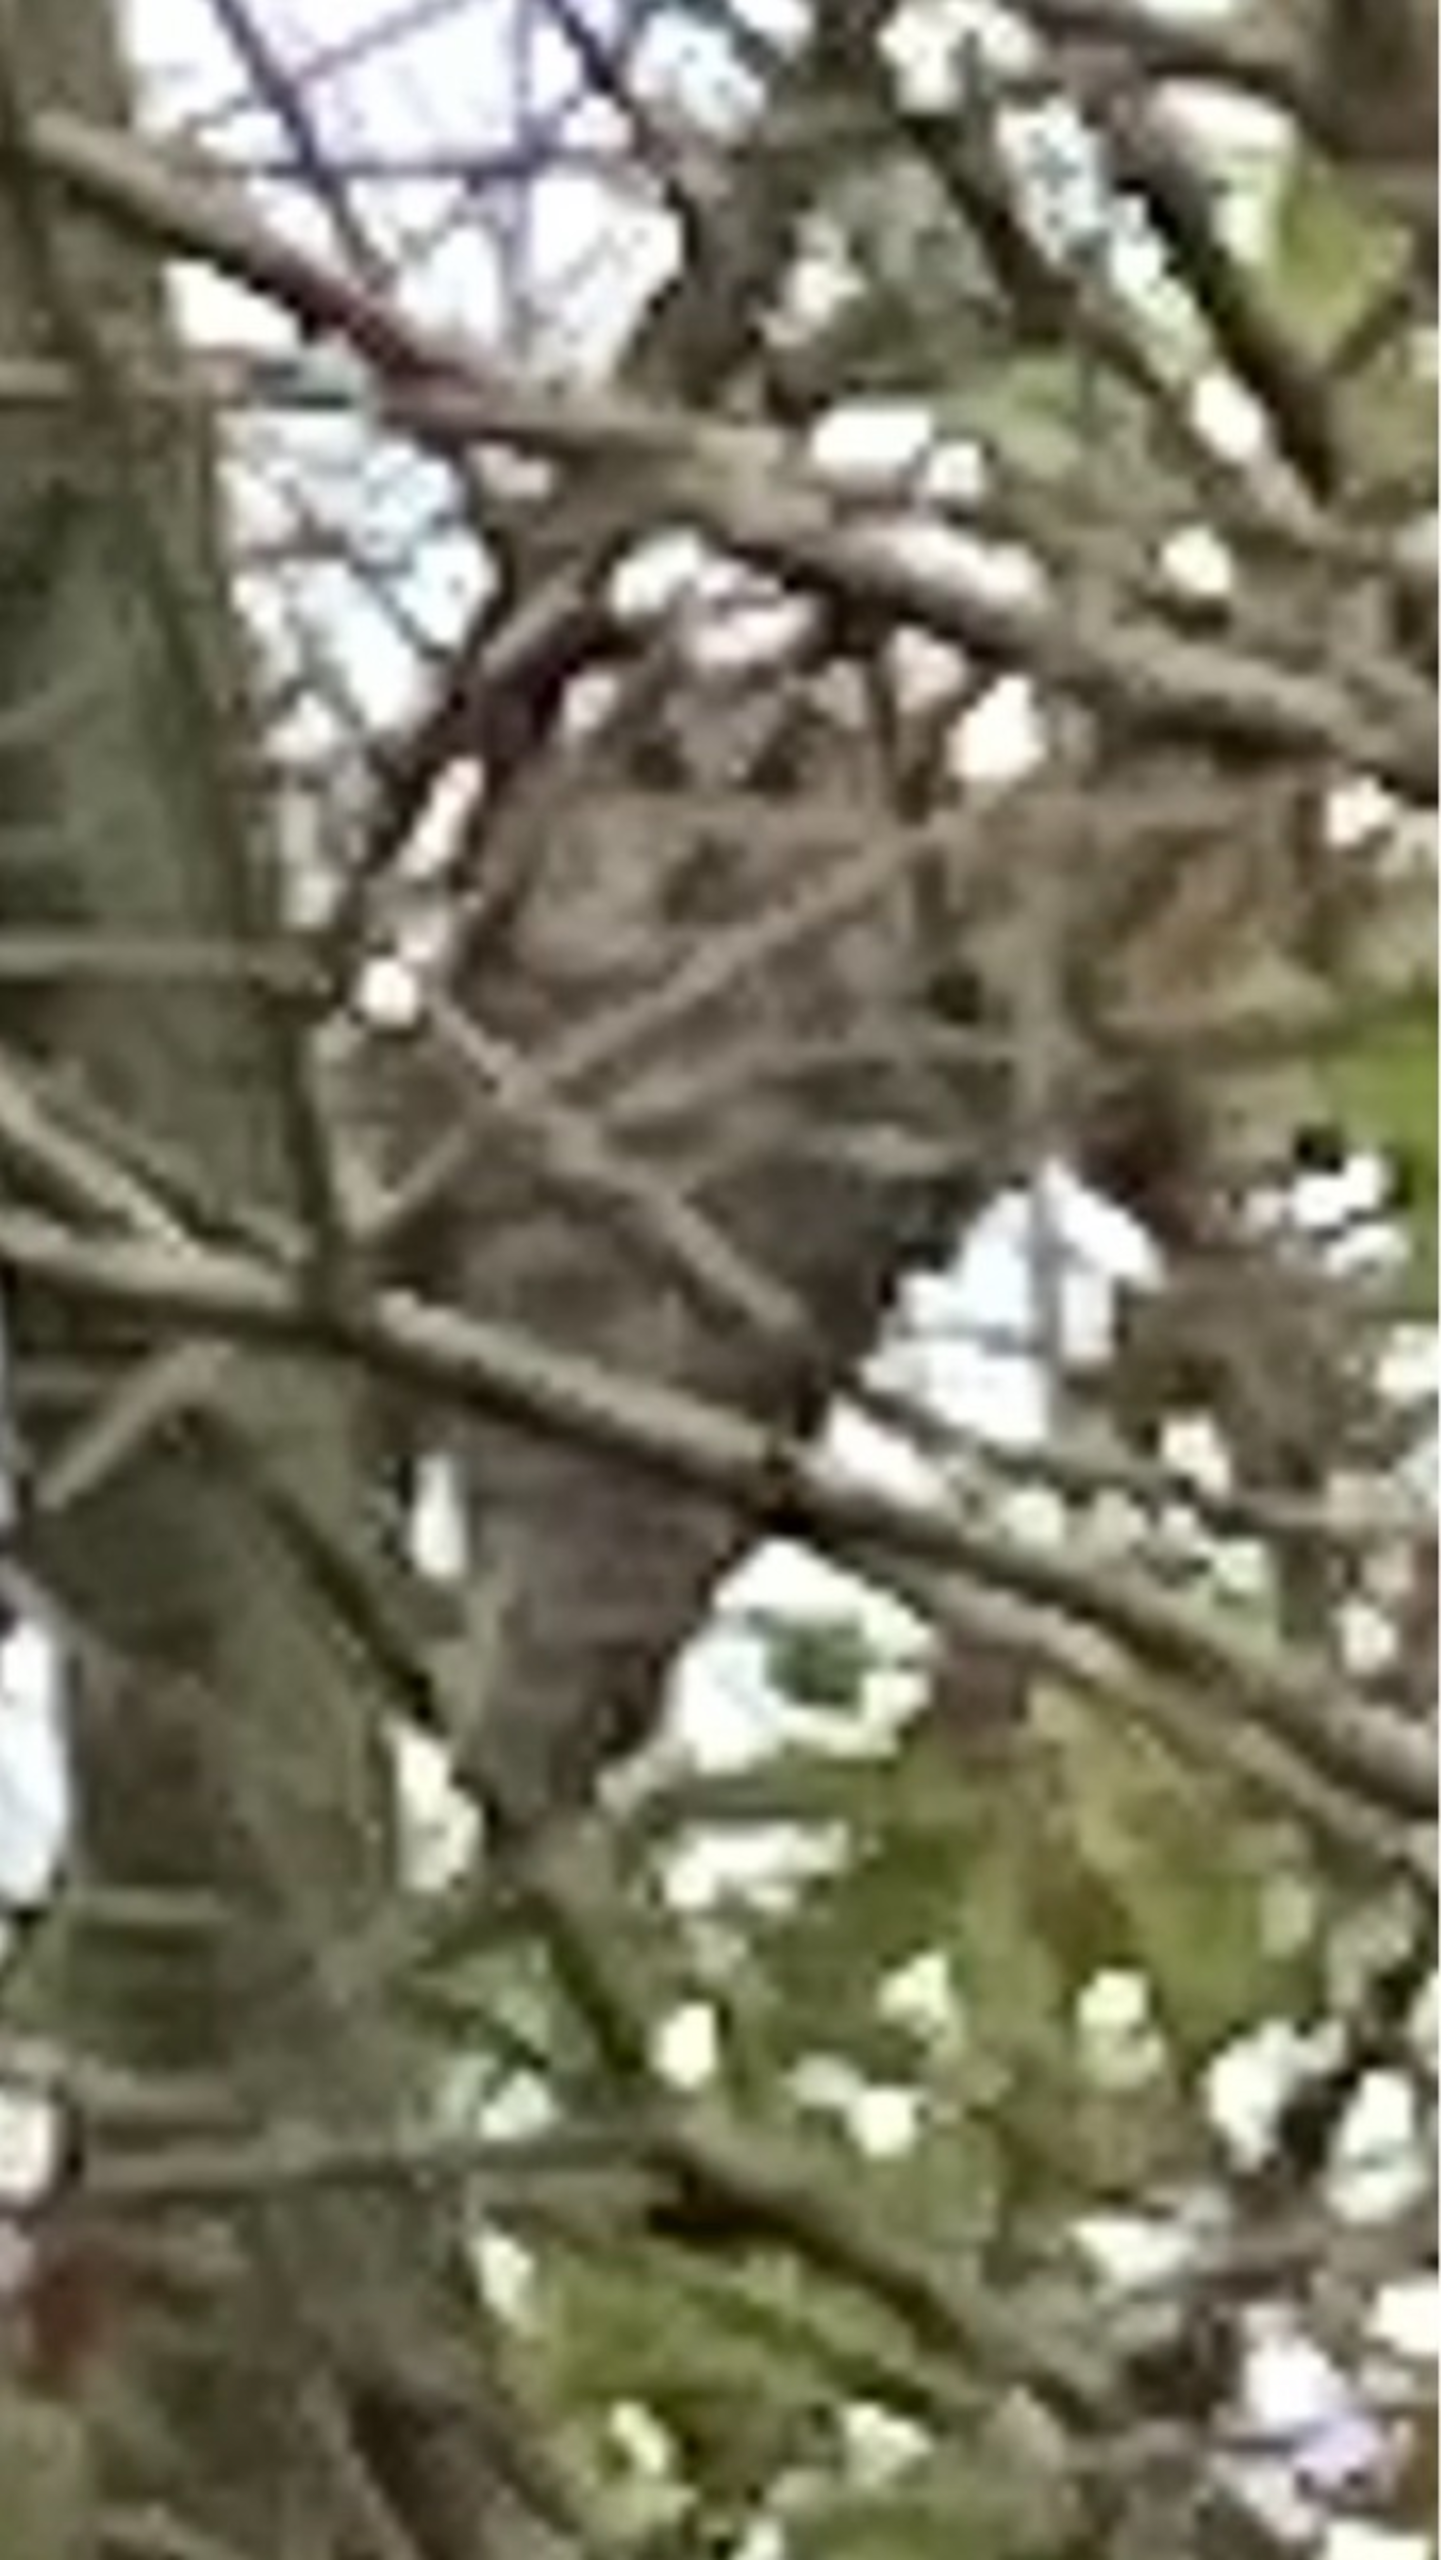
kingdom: Animalia
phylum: Chordata
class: Aves
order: Strigiformes
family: Strigidae
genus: Asio
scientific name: Asio otus
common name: Skovhornugle
